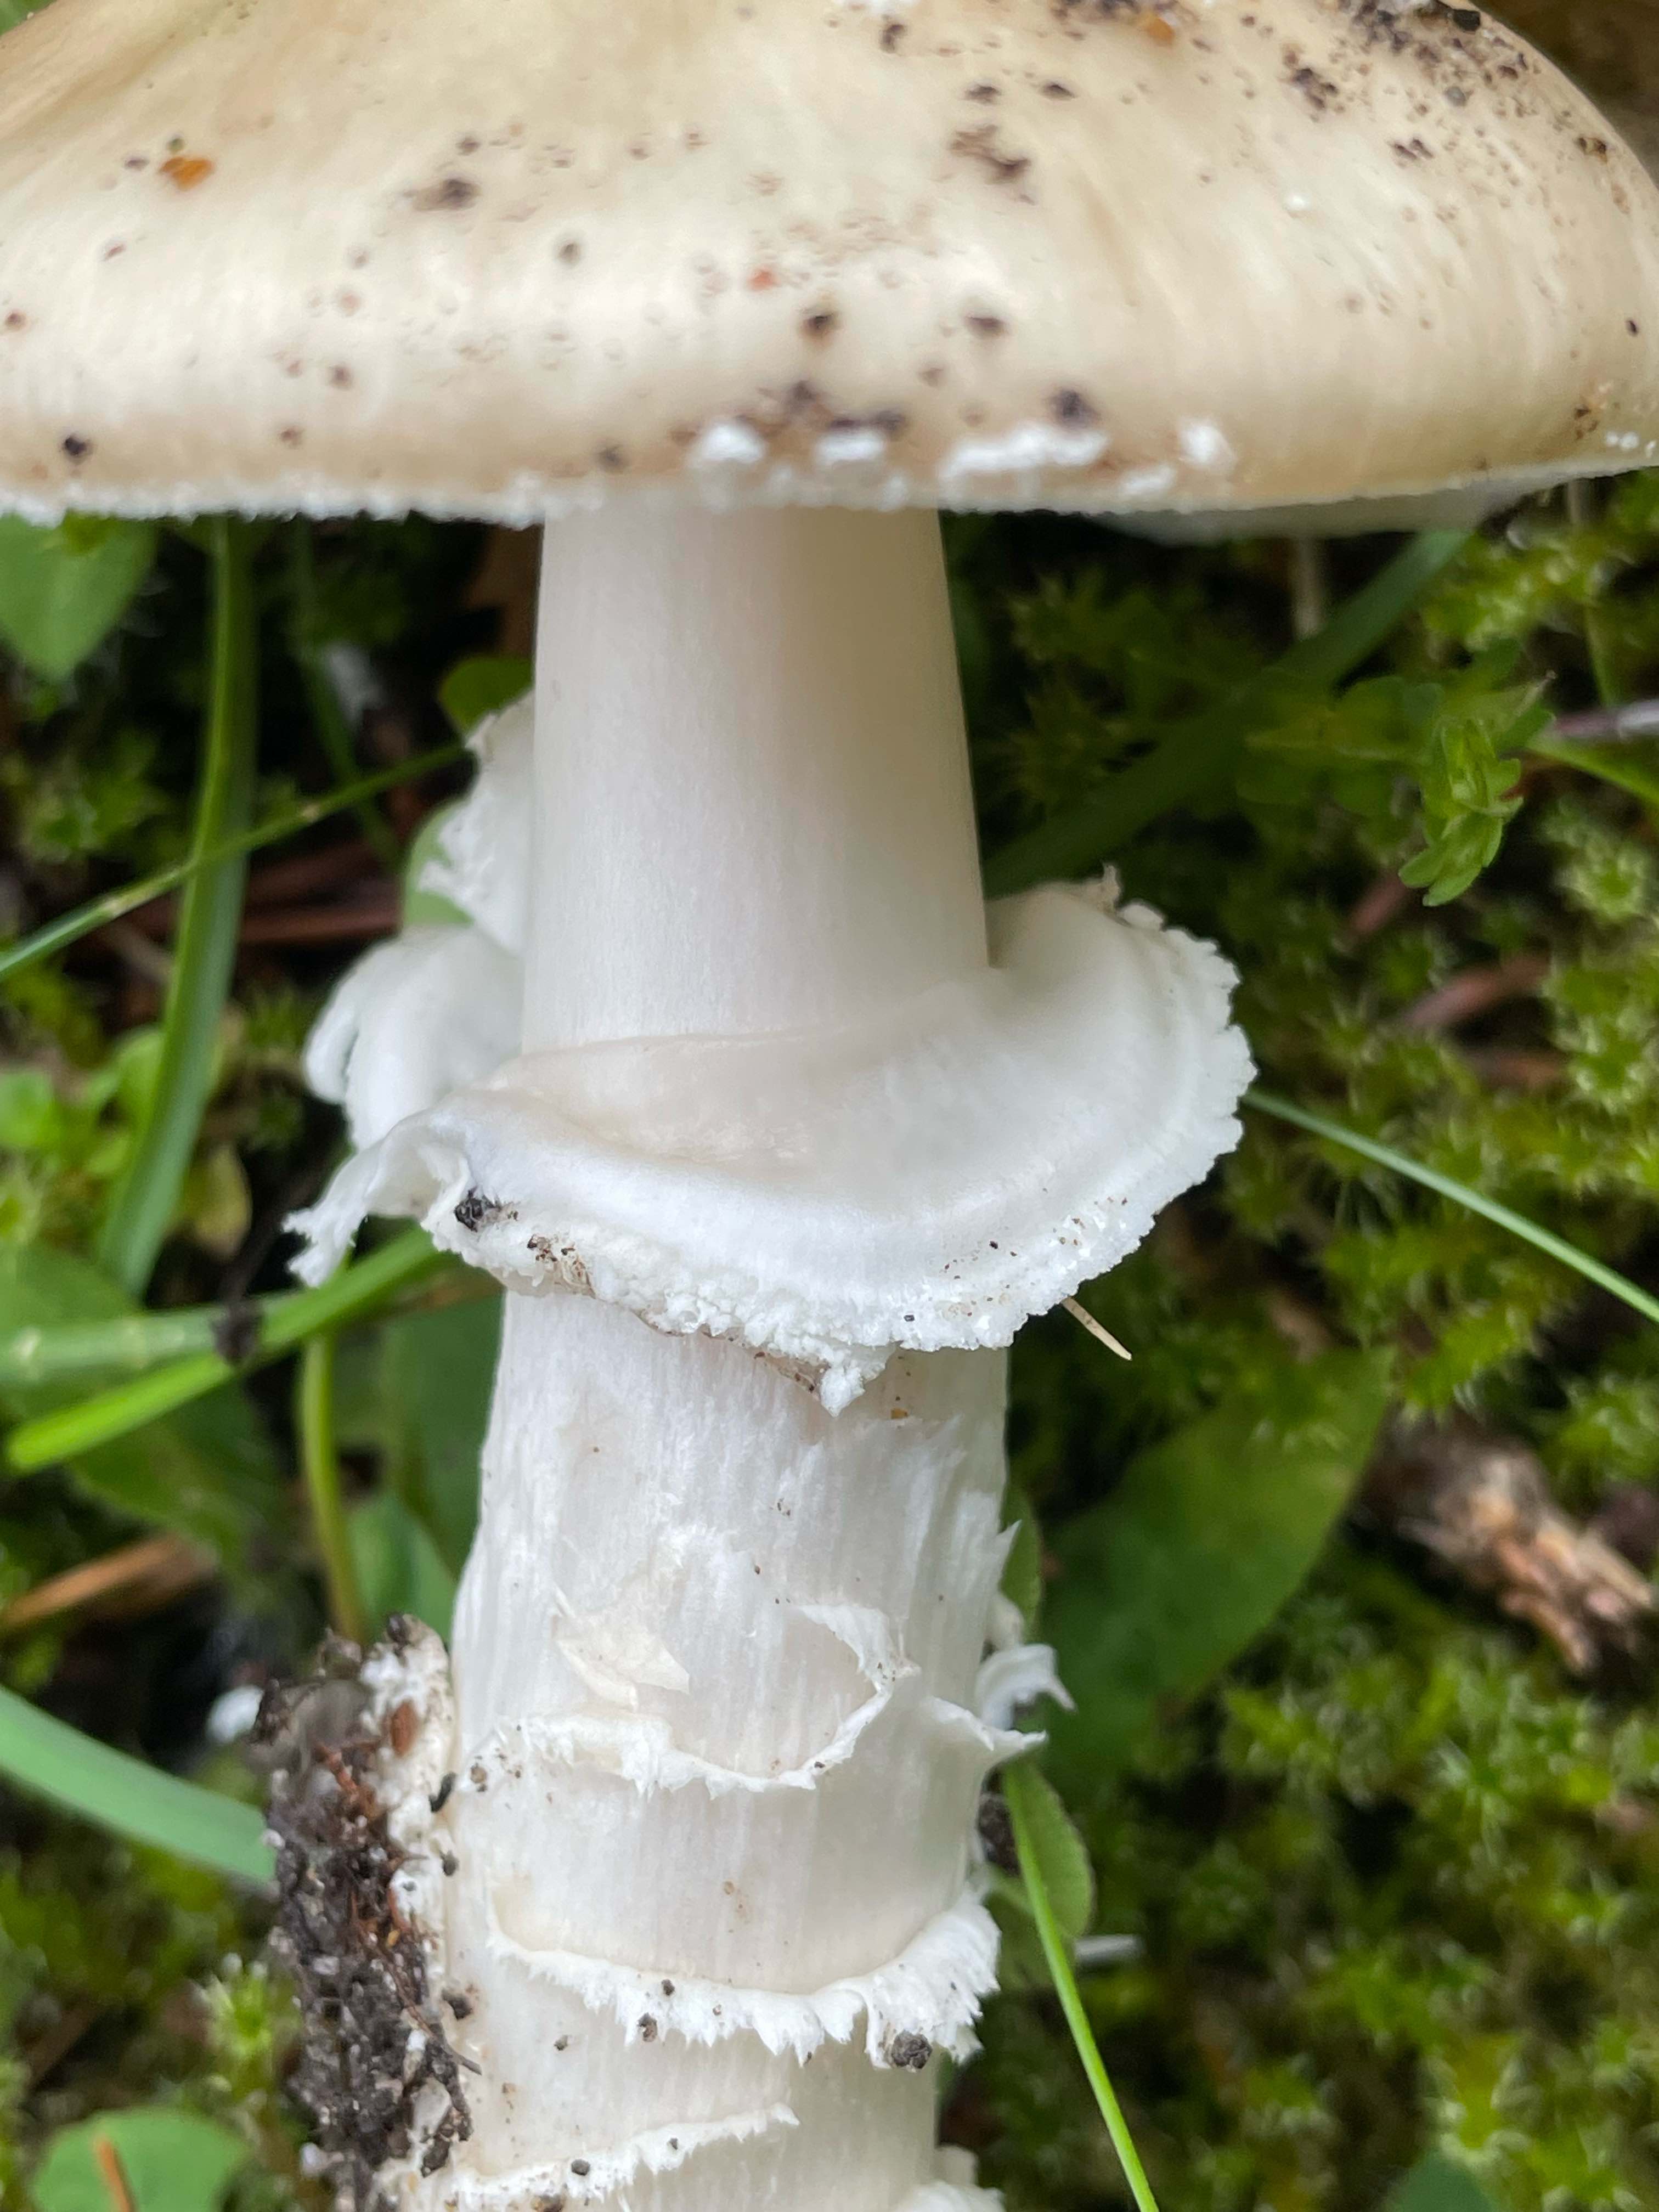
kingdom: Fungi
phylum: Basidiomycota
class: Agaricomycetes
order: Agaricales
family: Amanitaceae
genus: Amanita
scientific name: Amanita pantherina
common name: panter-fluesvamp
